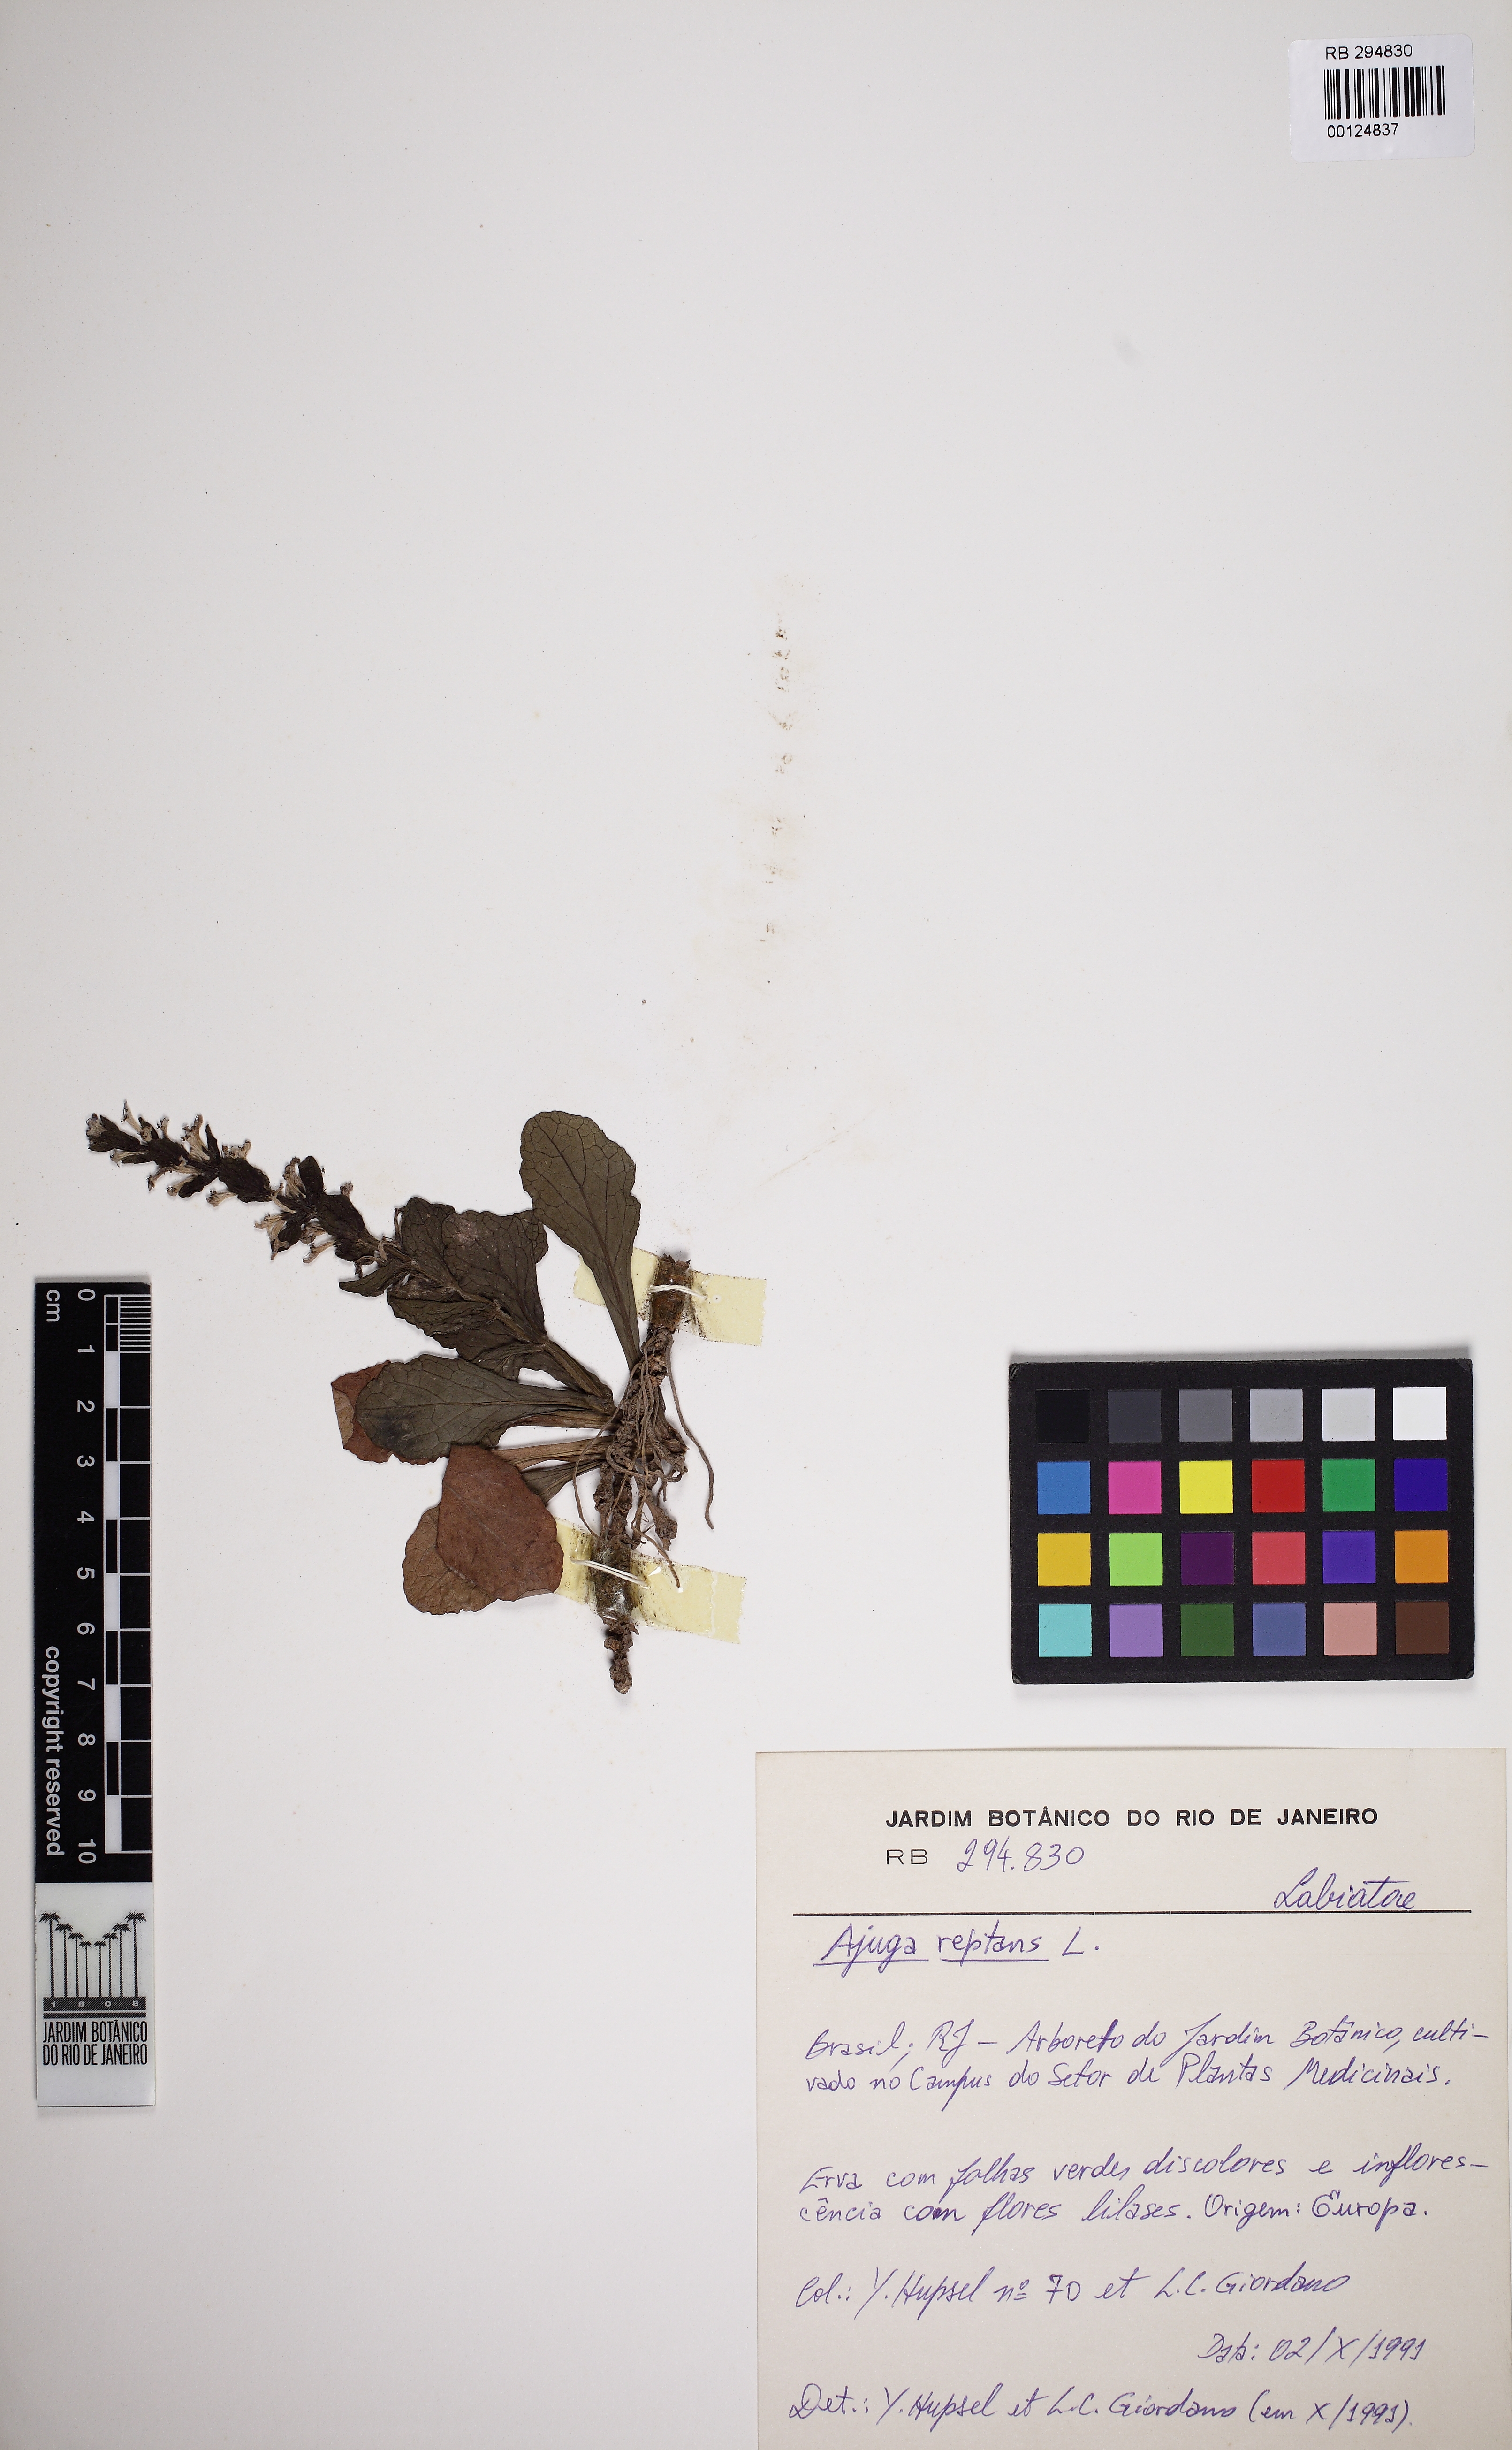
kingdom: Plantae
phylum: Tracheophyta
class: Magnoliopsida
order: Lamiales
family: Lamiaceae
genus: Ajuga
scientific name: Ajuga reptans
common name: Bugle
